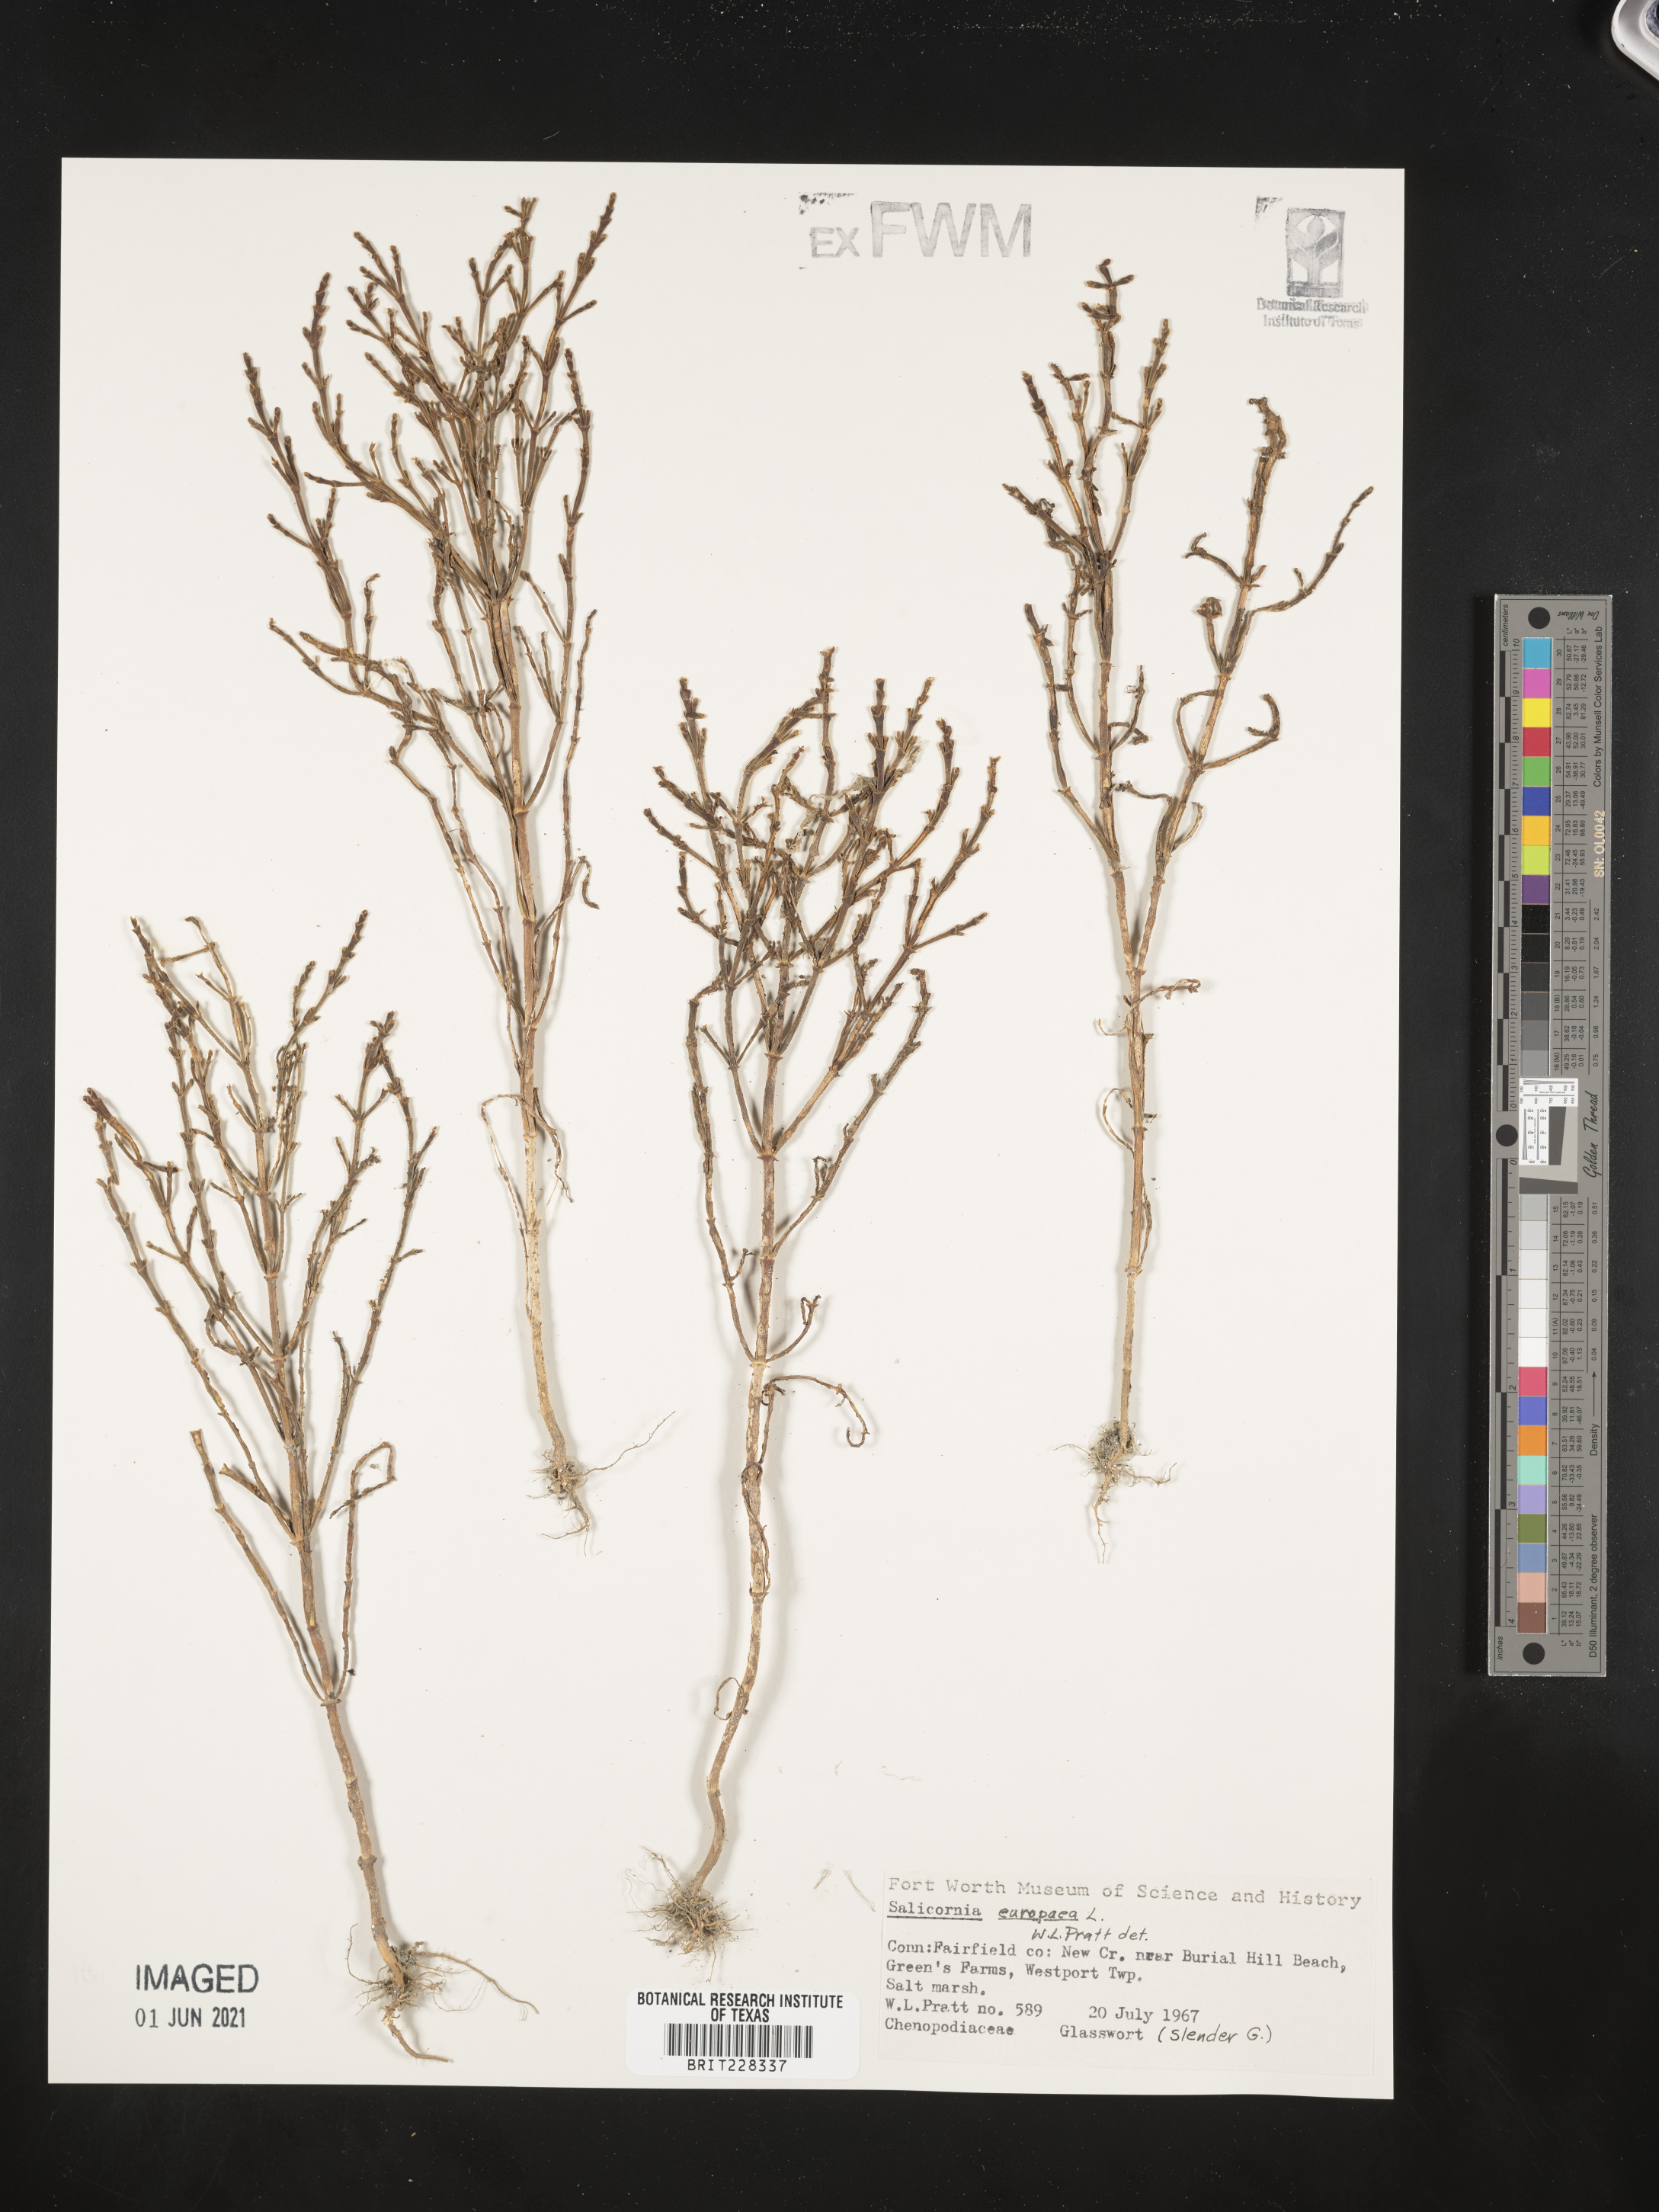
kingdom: Plantae
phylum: Tracheophyta
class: Magnoliopsida
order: Caryophyllales
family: Amaranthaceae
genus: Salicornia
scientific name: Salicornia europaea
